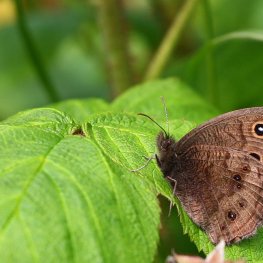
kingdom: Animalia
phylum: Arthropoda
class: Insecta
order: Lepidoptera
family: Nymphalidae
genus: Cercyonis
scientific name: Cercyonis pegala
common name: Common Wood-Nymph
